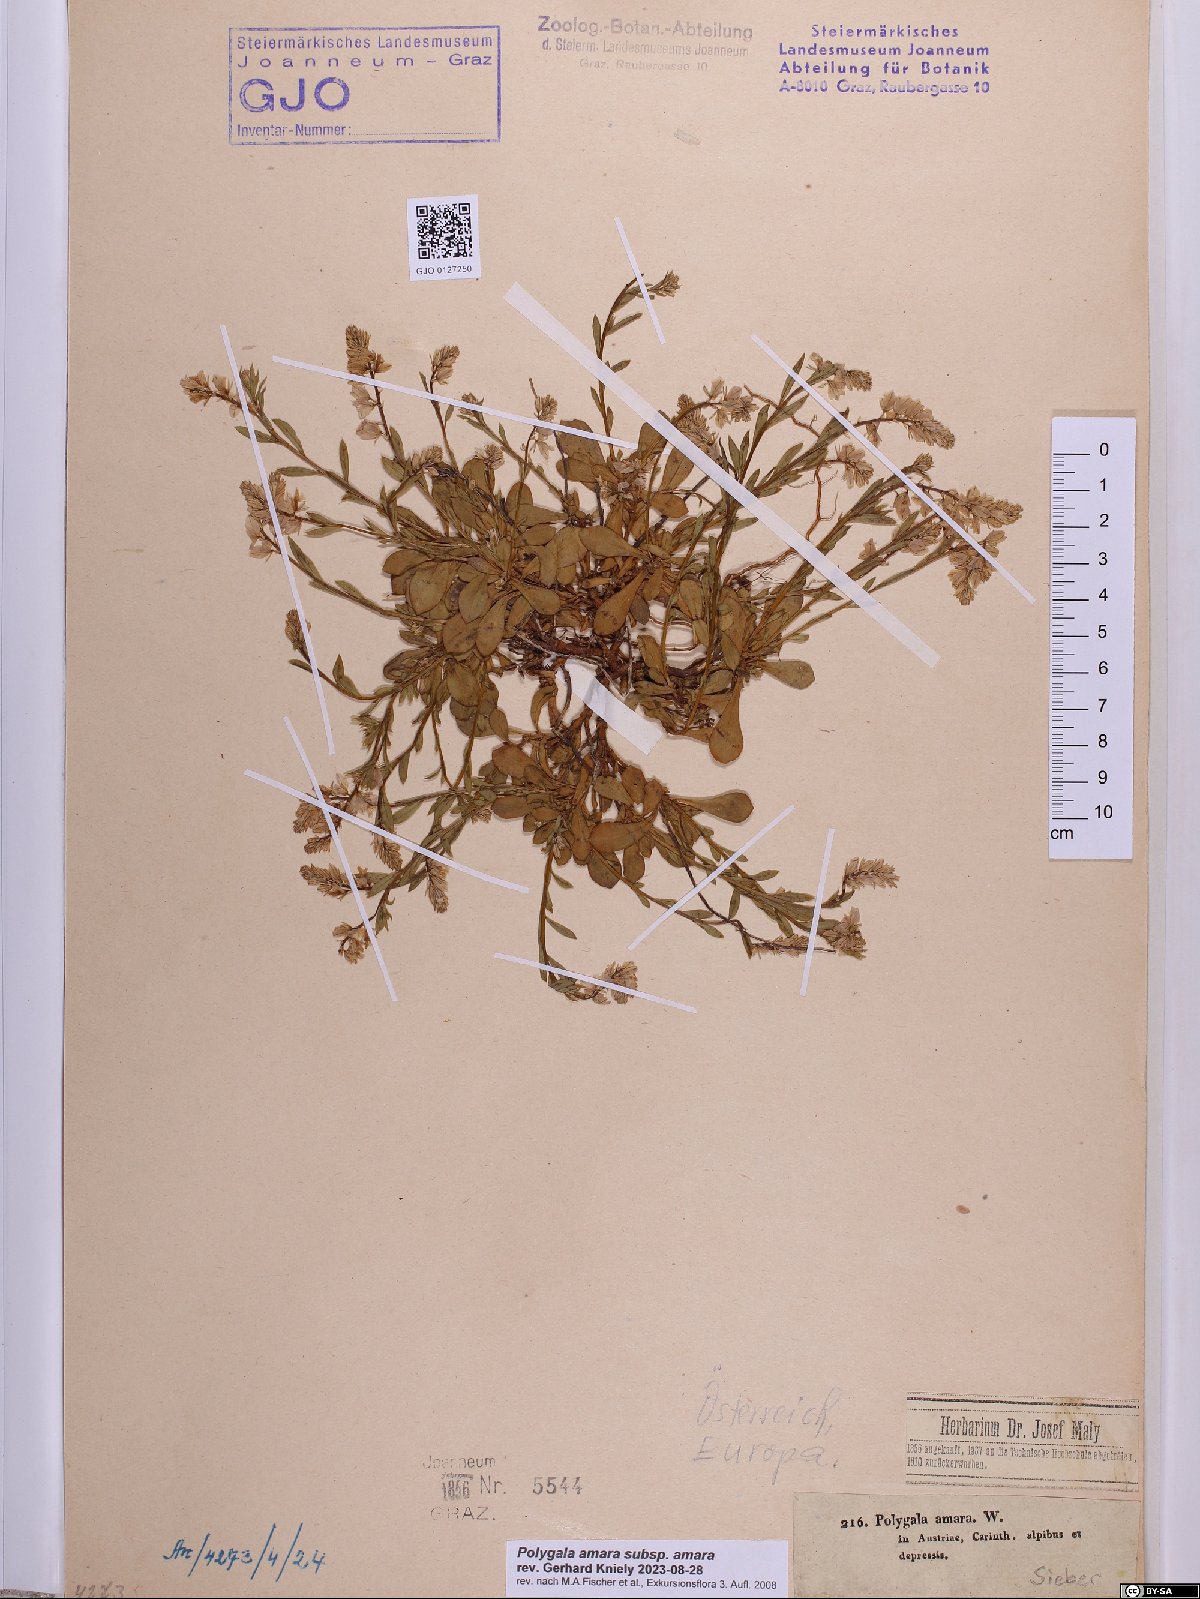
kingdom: Plantae
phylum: Tracheophyta
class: Magnoliopsida
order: Fabales
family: Polygalaceae
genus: Polygala
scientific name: Polygala amara
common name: Milkwort
